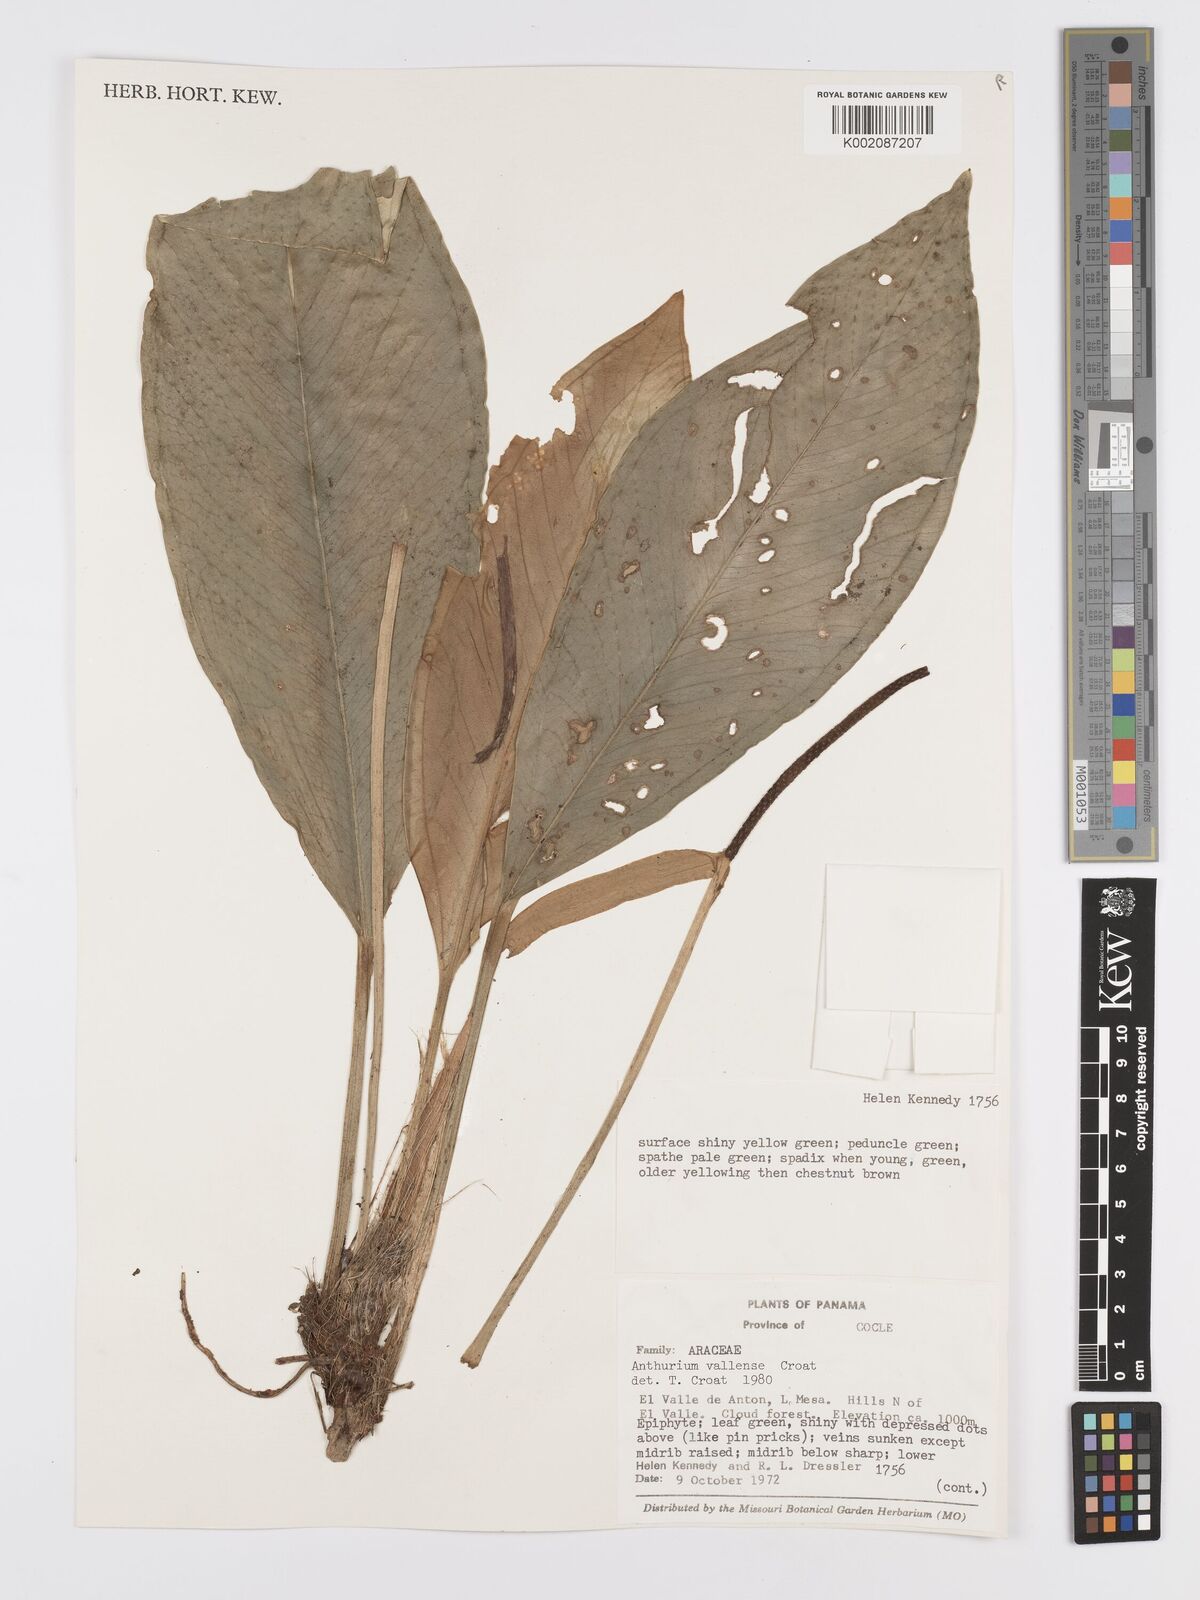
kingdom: Plantae
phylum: Tracheophyta
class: Liliopsida
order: Alismatales
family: Araceae
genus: Anthurium
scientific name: Anthurium vallense
